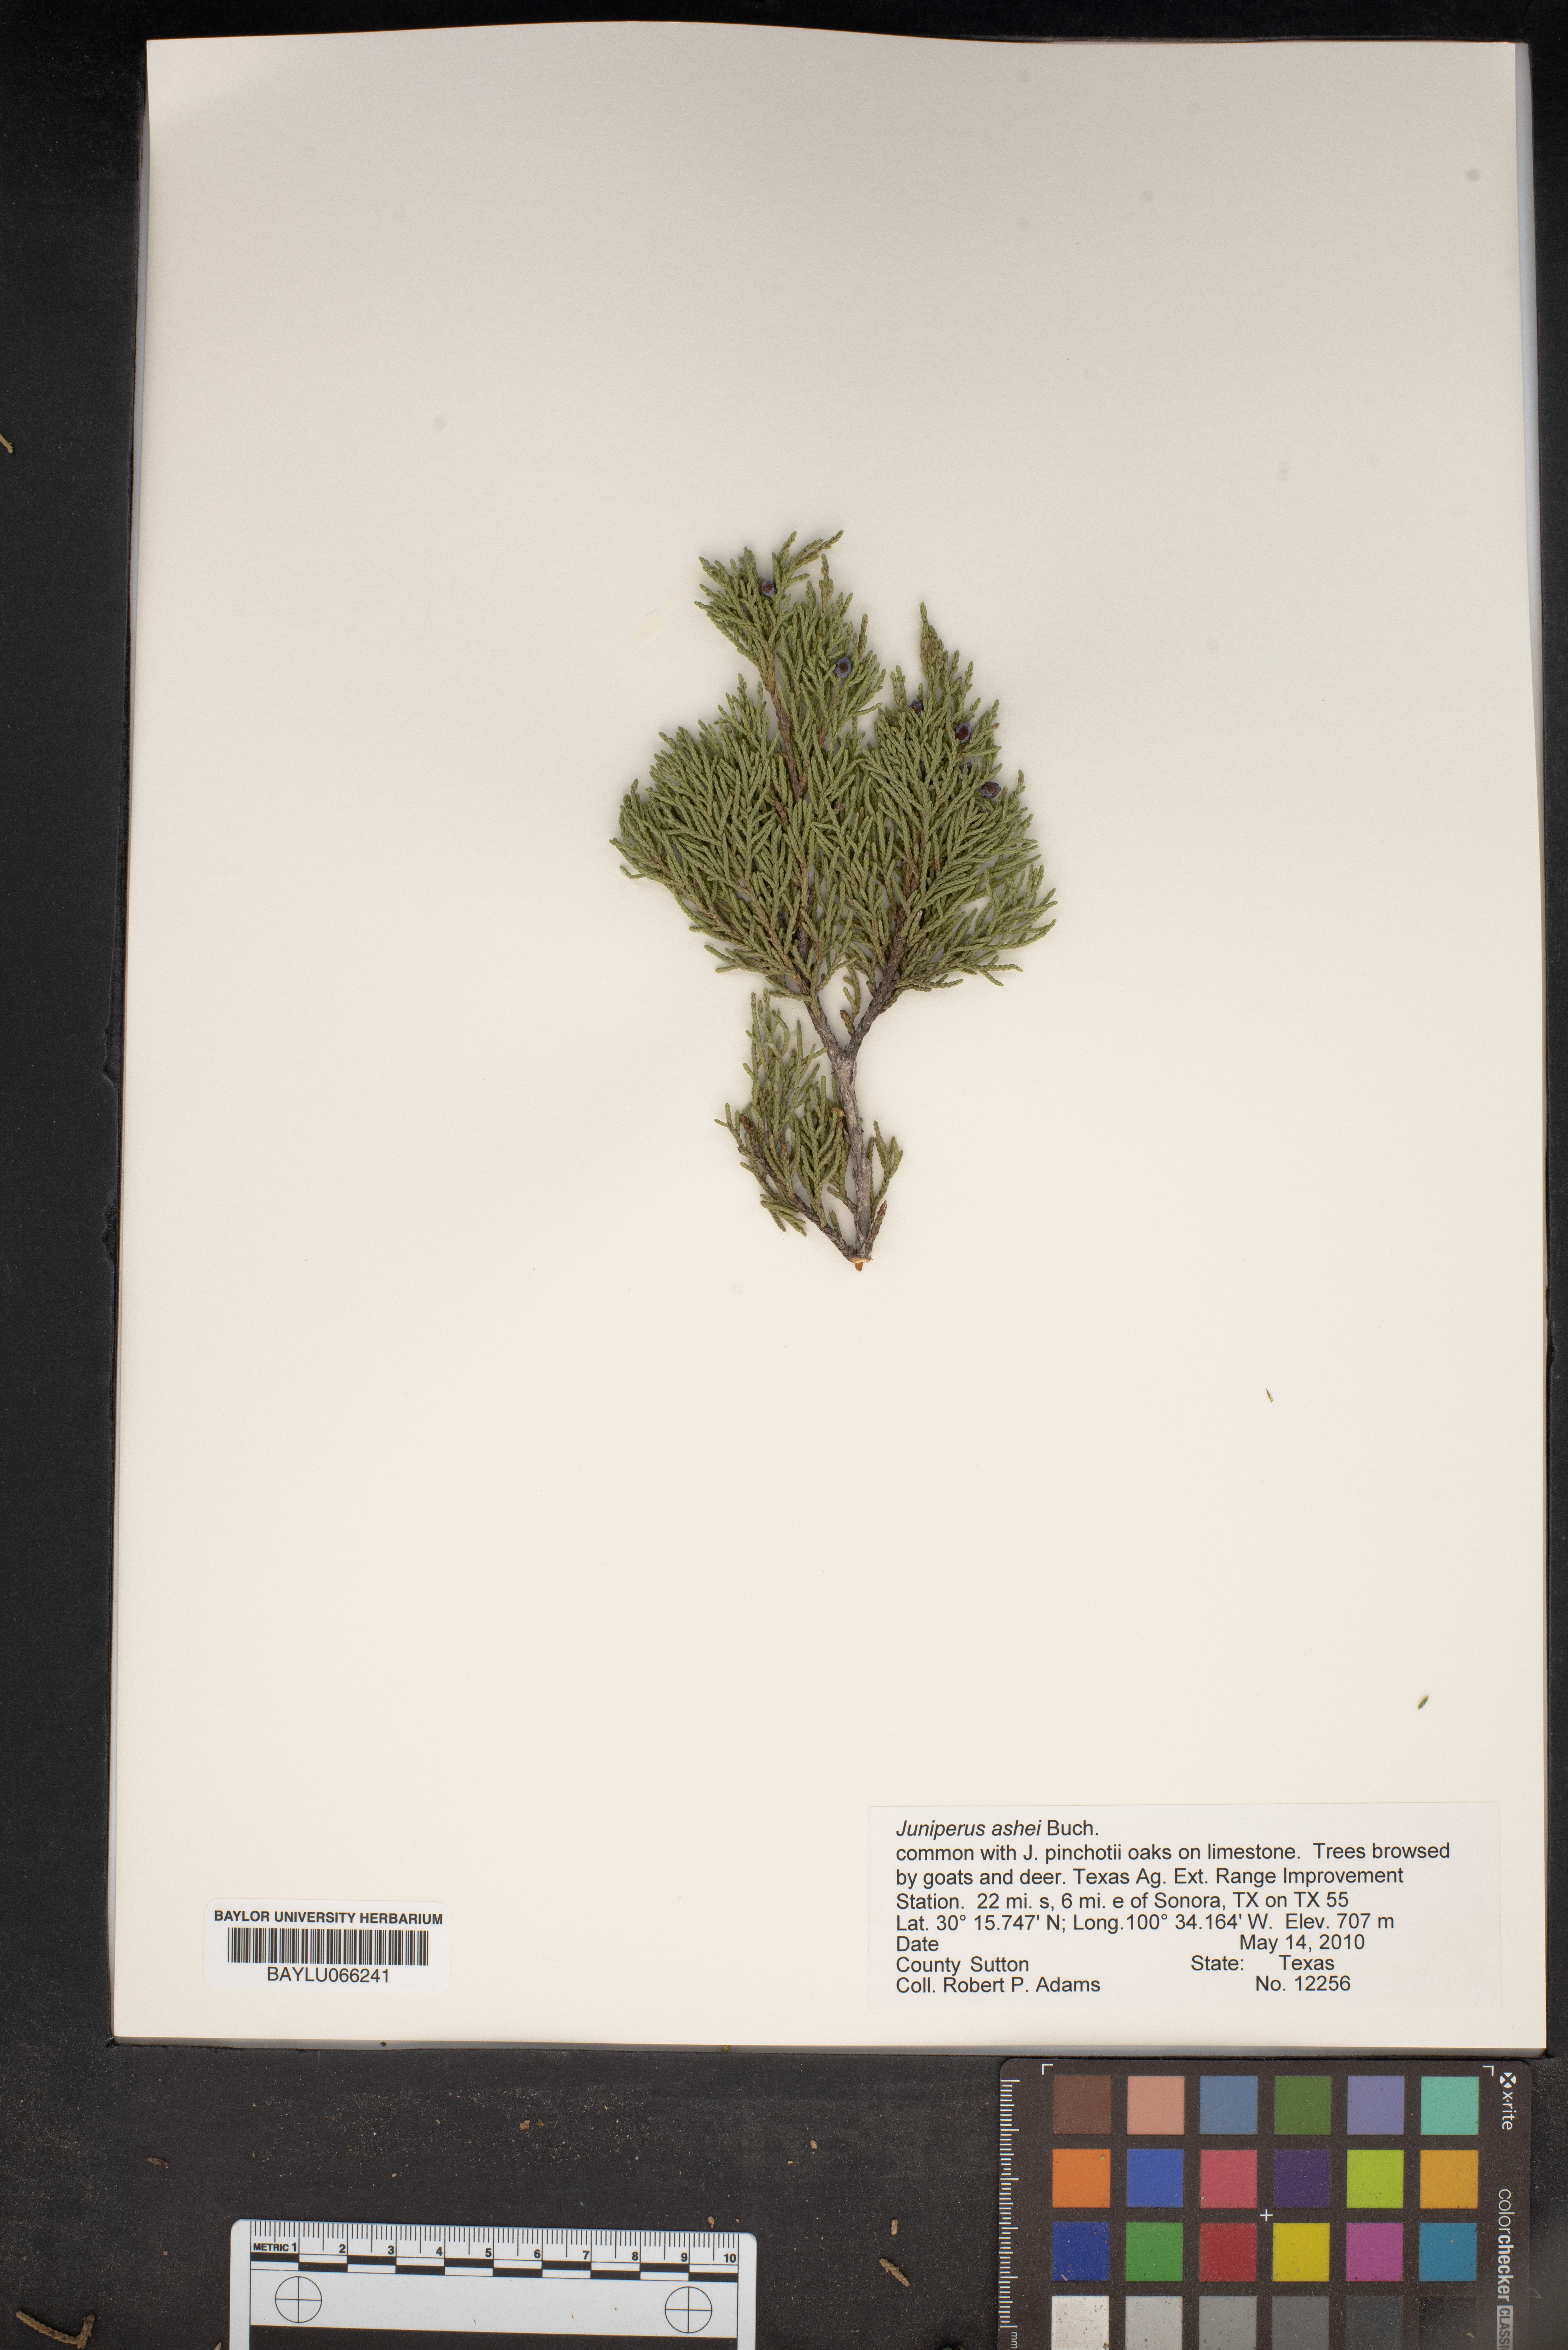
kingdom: Plantae
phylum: Tracheophyta
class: Pinopsida
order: Pinales
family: Cupressaceae
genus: Juniperus
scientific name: Juniperus ashei
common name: Mexican juniper
